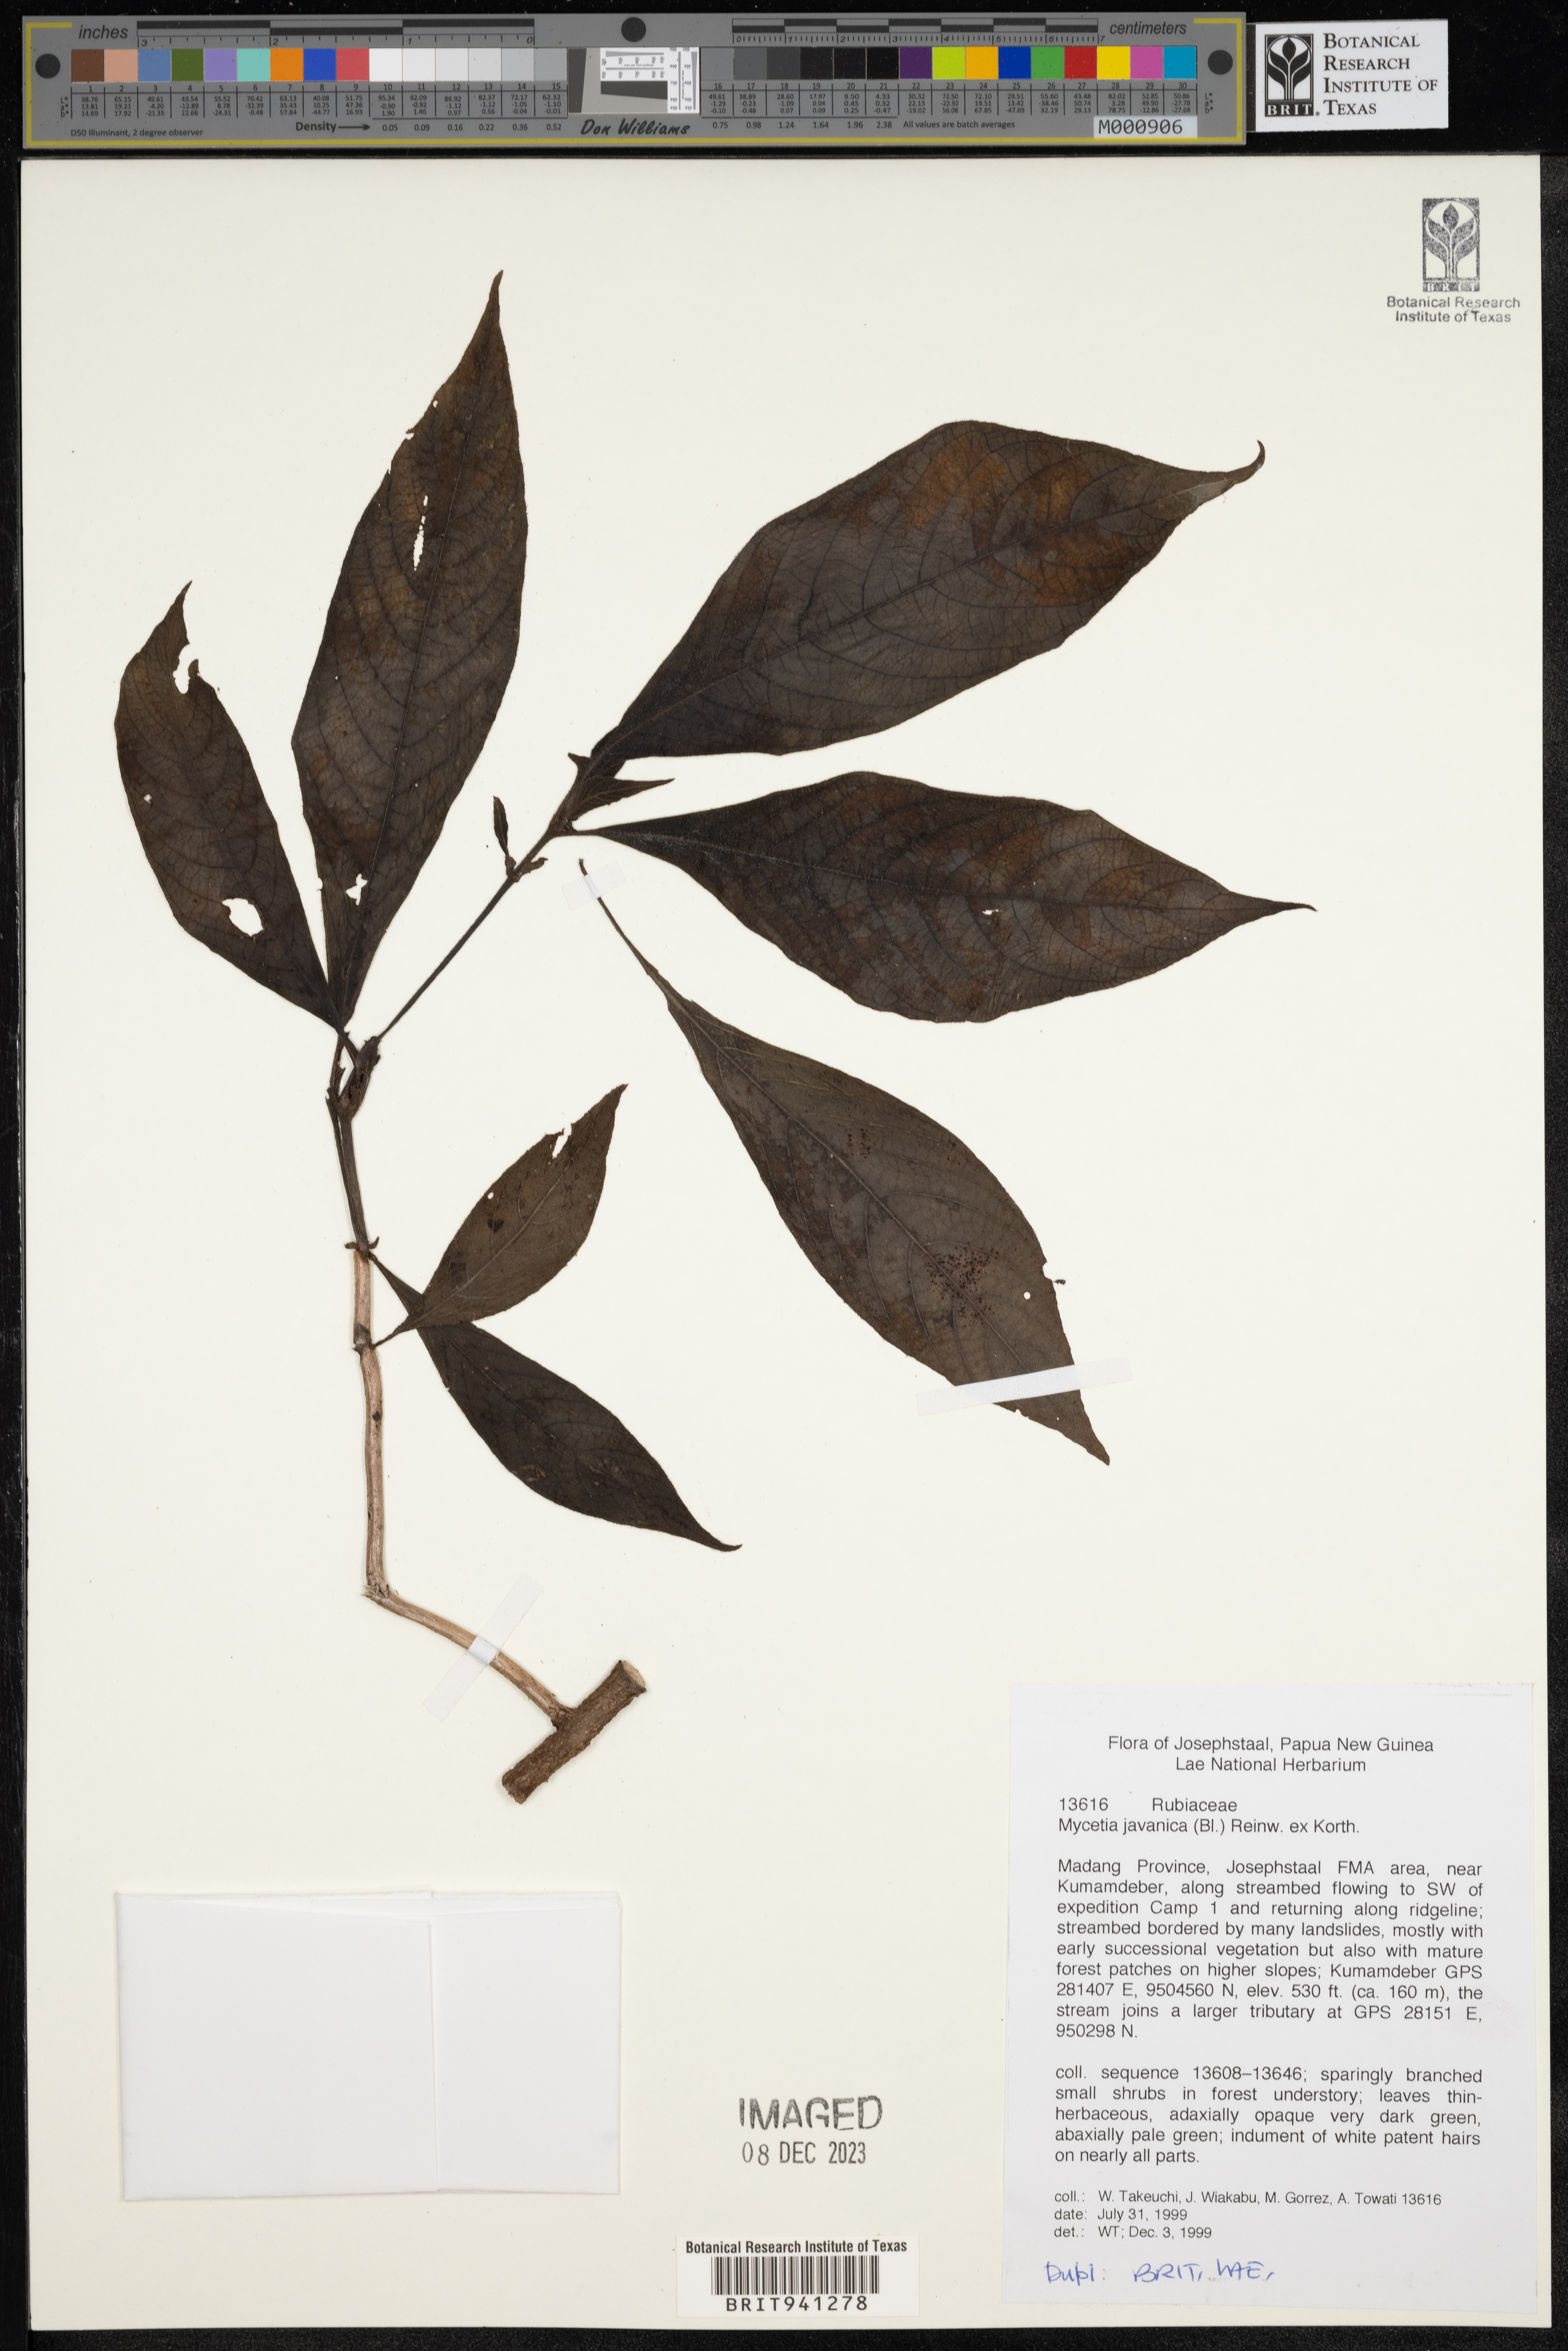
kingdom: Plantae
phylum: Tracheophyta
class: Magnoliopsida
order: Gentianales
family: Rubiaceae
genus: Mycetia
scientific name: Mycetia
